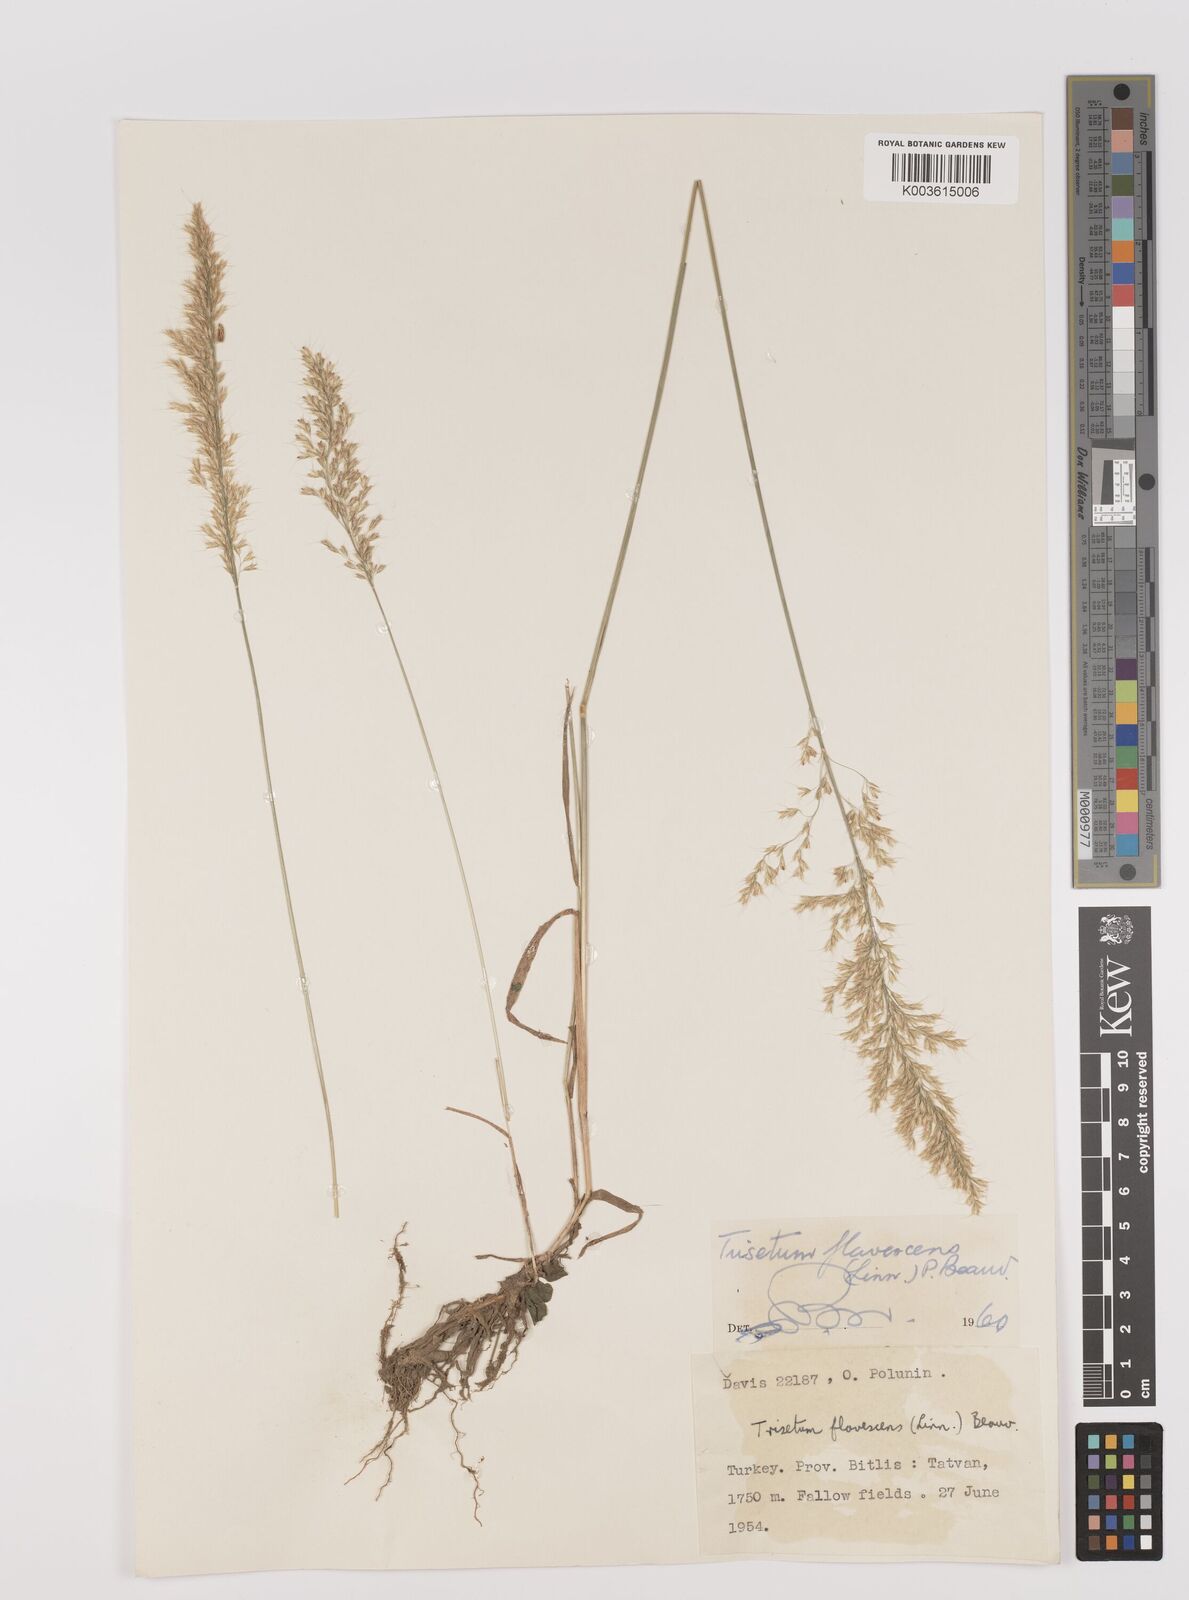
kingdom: Plantae
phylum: Tracheophyta
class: Liliopsida
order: Poales
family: Poaceae
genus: Trisetum
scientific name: Trisetum flavescens
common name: Yellow oat-grass
